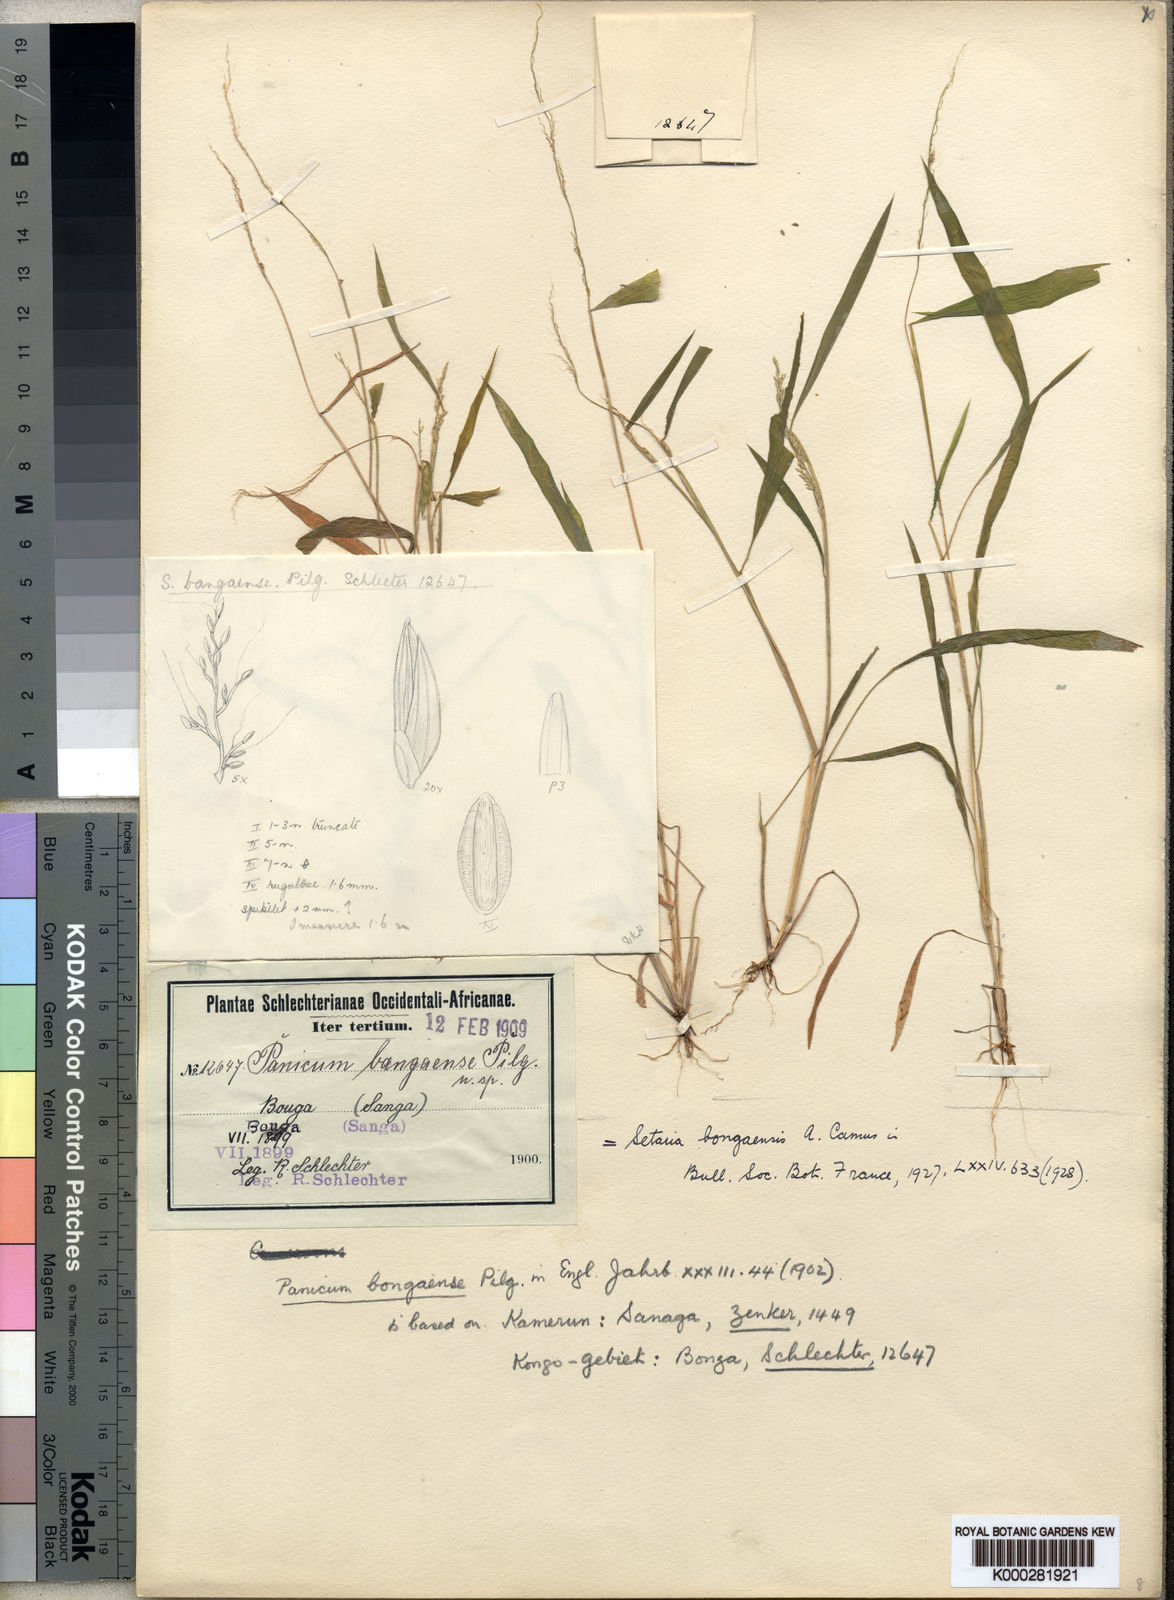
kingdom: Plantae
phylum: Tracheophyta
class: Liliopsida
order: Poales
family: Poaceae
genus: Setaria
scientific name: Setaria homonyma
